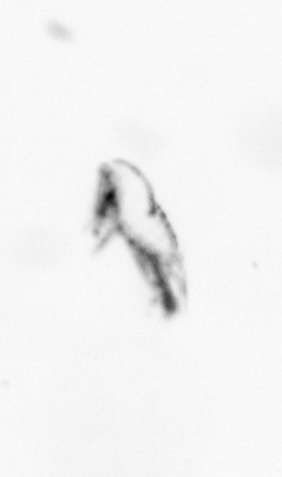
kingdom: Animalia
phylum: Arthropoda
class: Copepoda
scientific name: Copepoda
